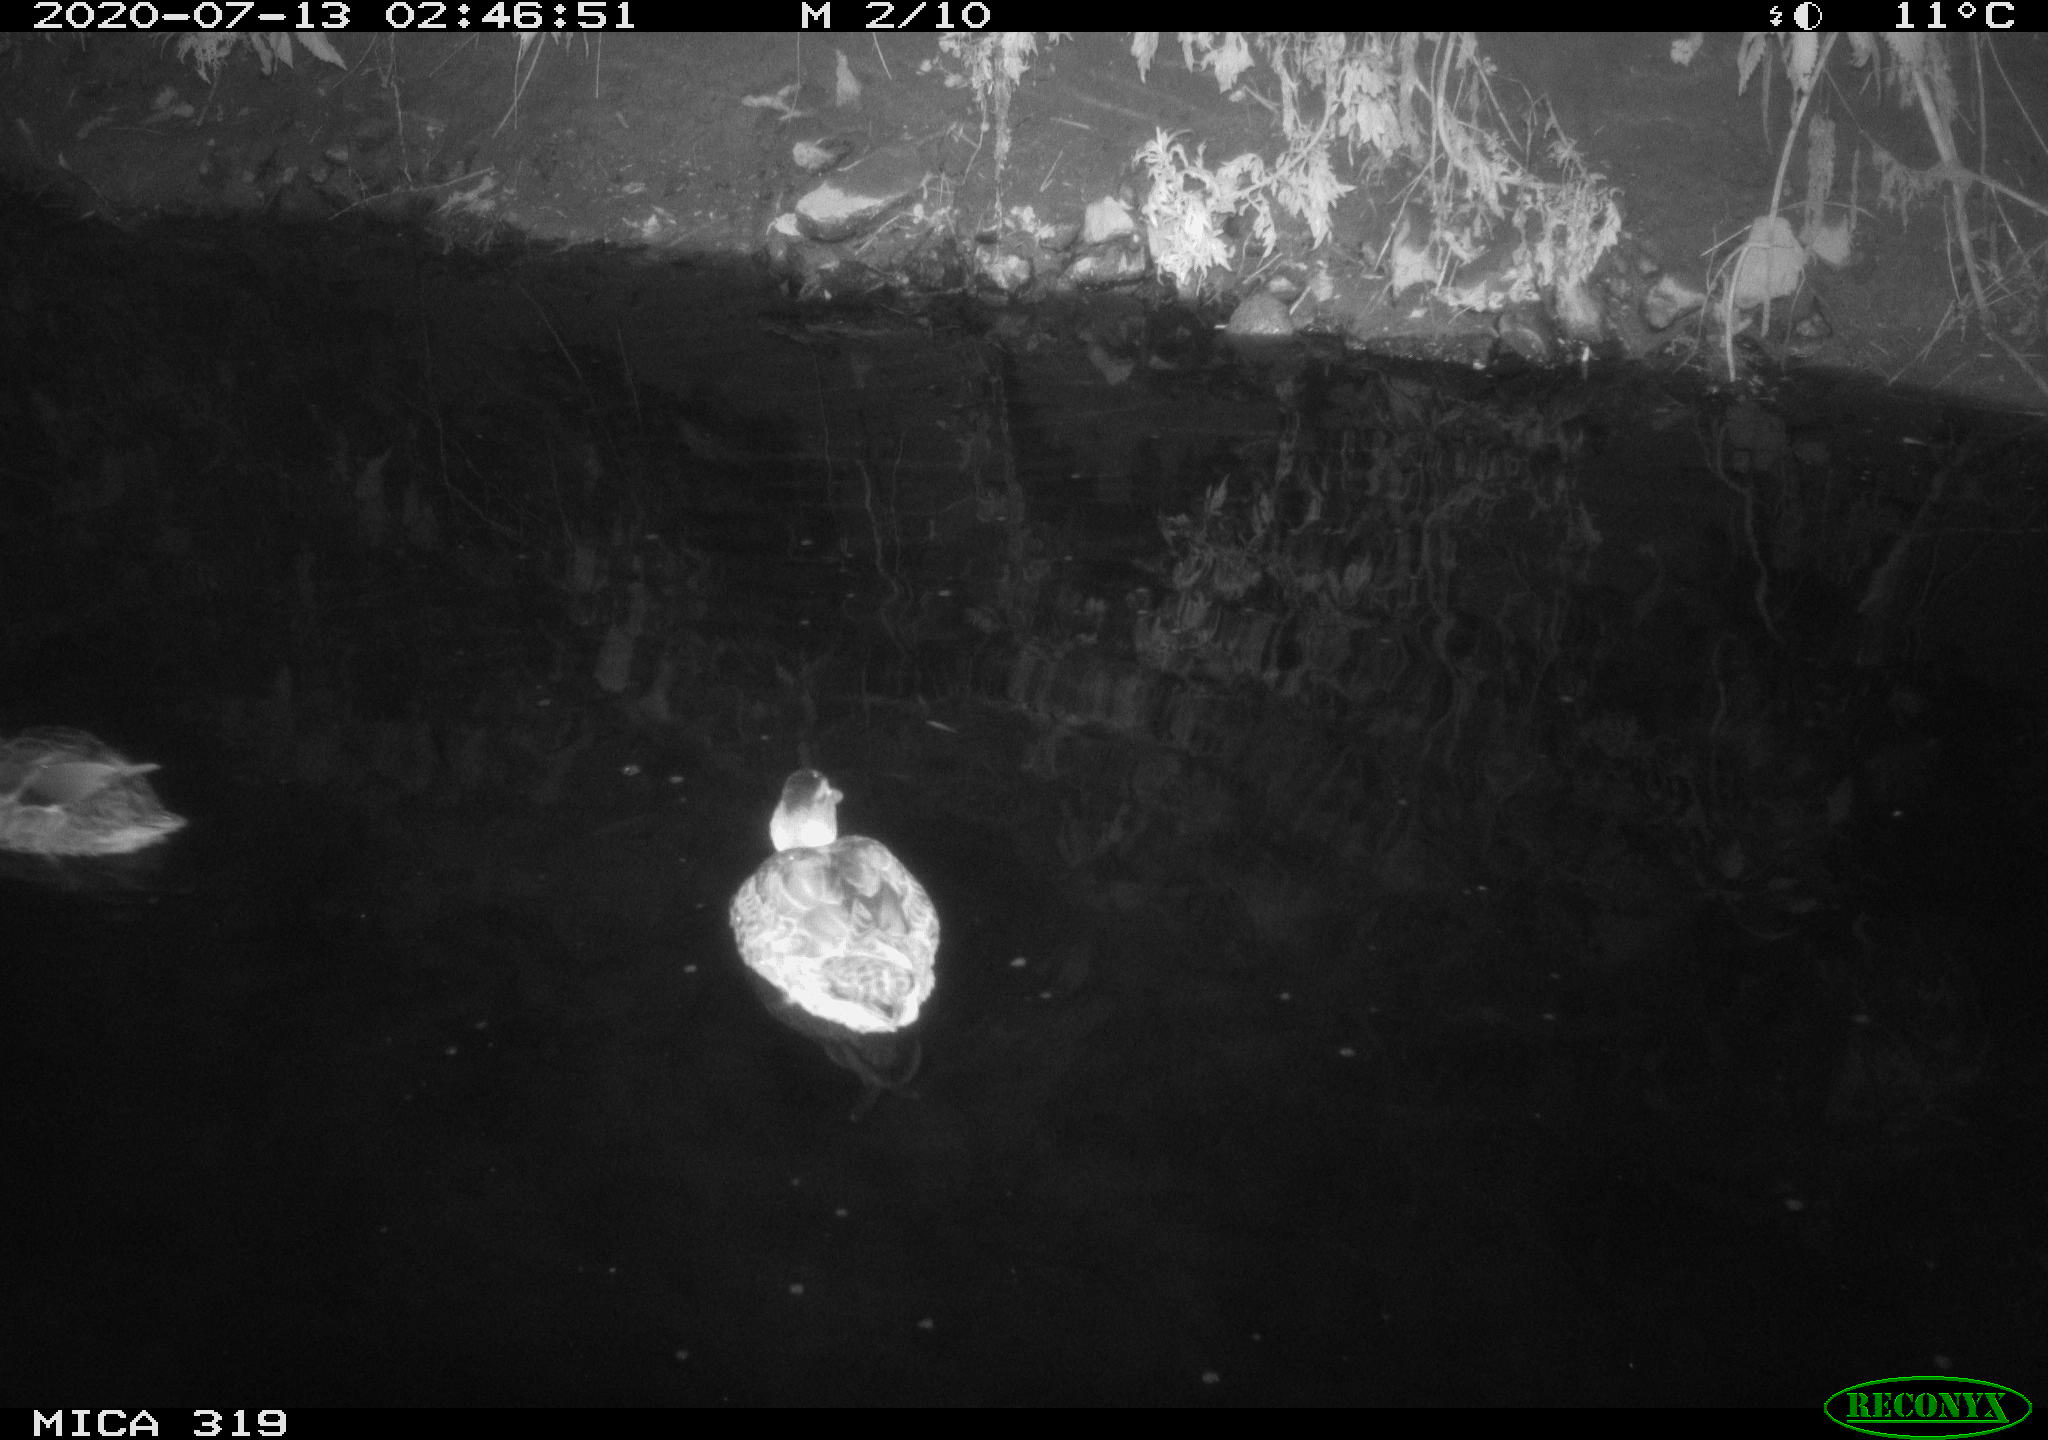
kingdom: Animalia
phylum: Chordata
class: Aves
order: Anseriformes
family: Anatidae
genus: Anas
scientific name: Anas platyrhynchos
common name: Mallard
